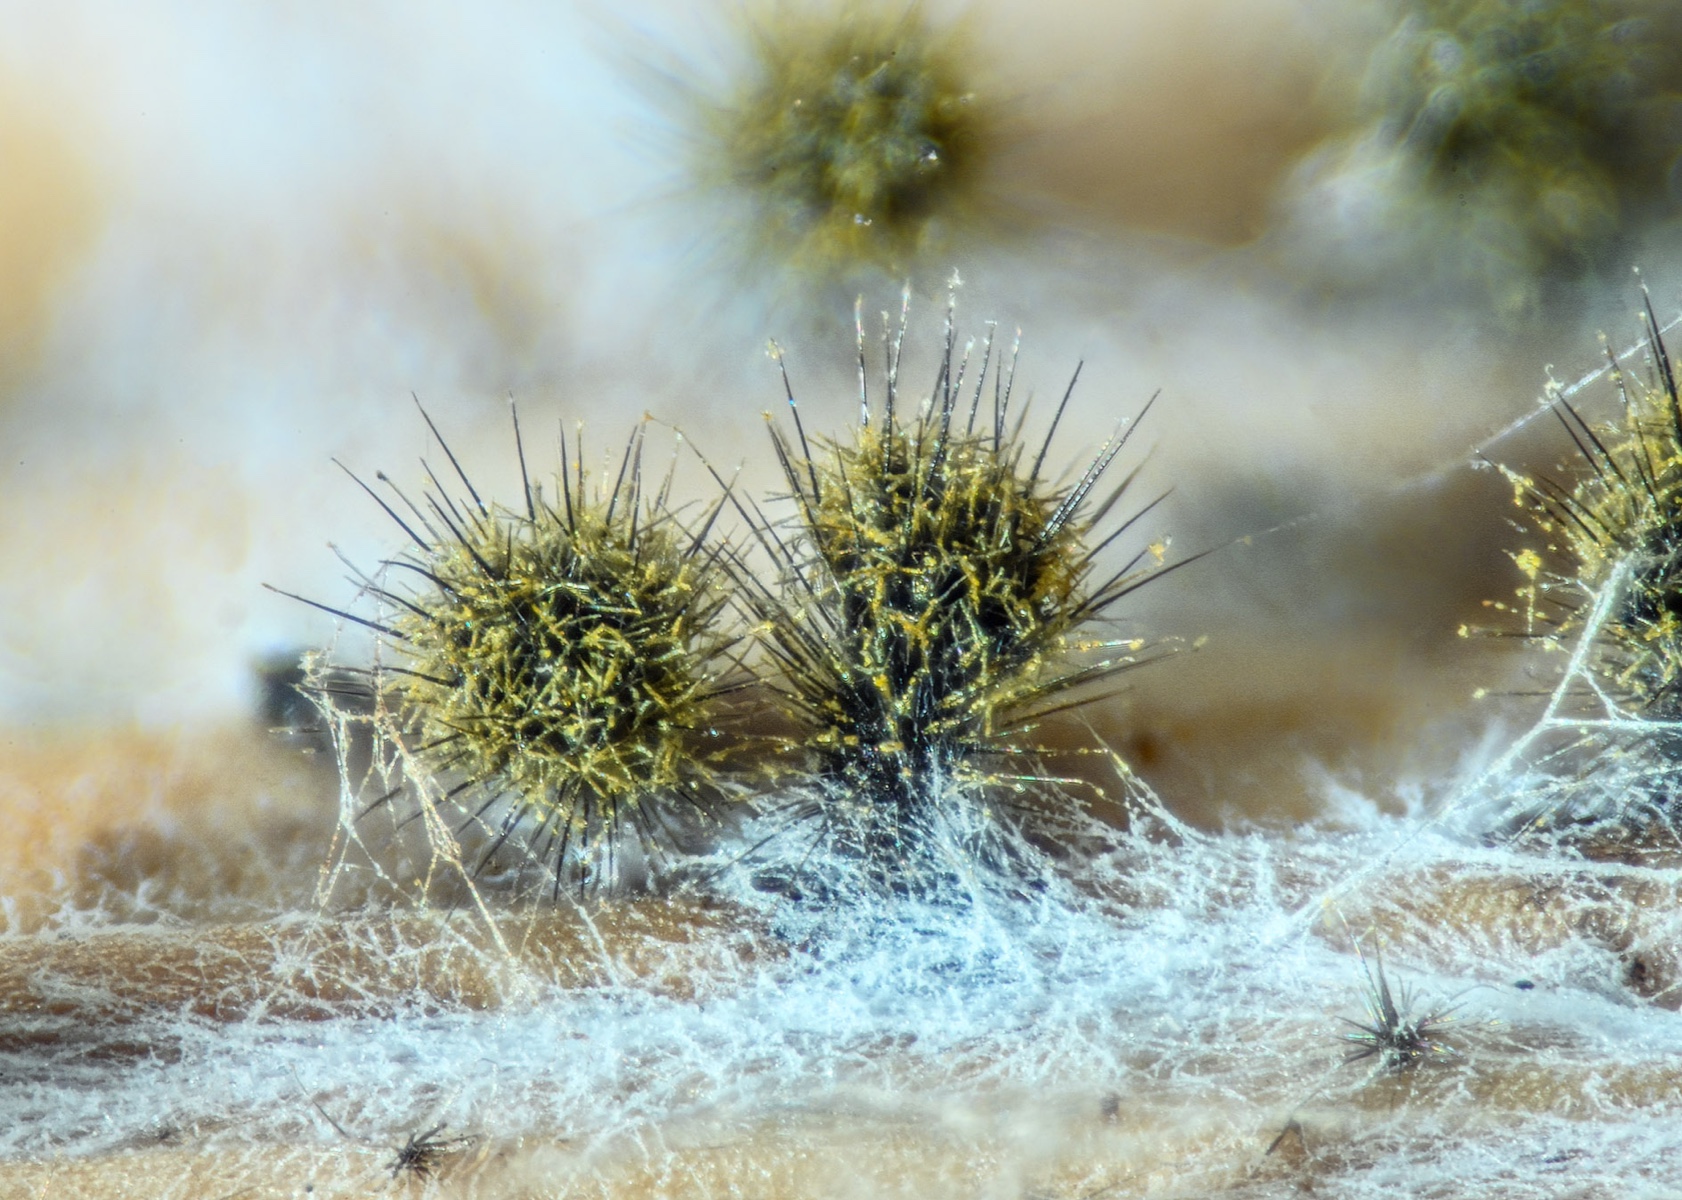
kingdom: Fungi
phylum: Ascomycota
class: Sordariomycetes
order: Sordariales
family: Chaetomiaceae
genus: Chaetomium
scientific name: Chaetomium
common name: søjlekerne
